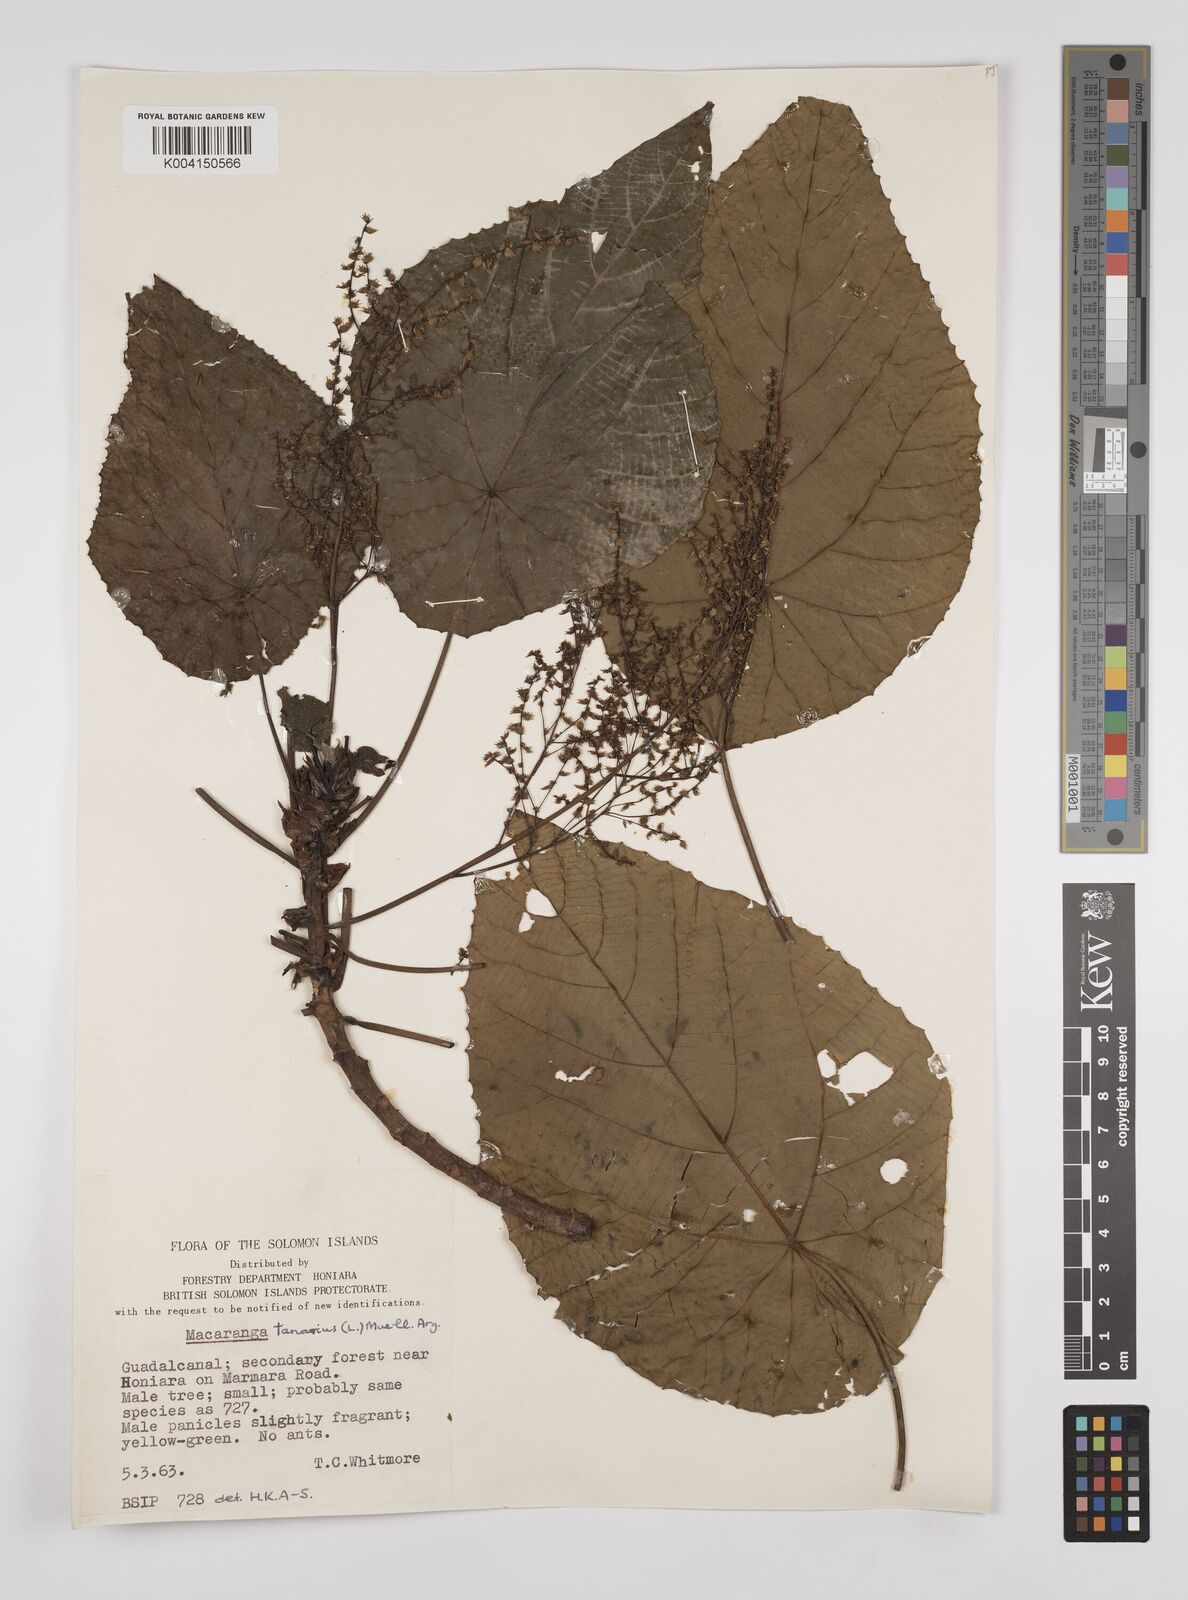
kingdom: Plantae
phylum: Tracheophyta
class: Magnoliopsida
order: Malpighiales
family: Euphorbiaceae
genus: Macaranga
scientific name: Macaranga tanarius
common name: Parasol leaf tree
